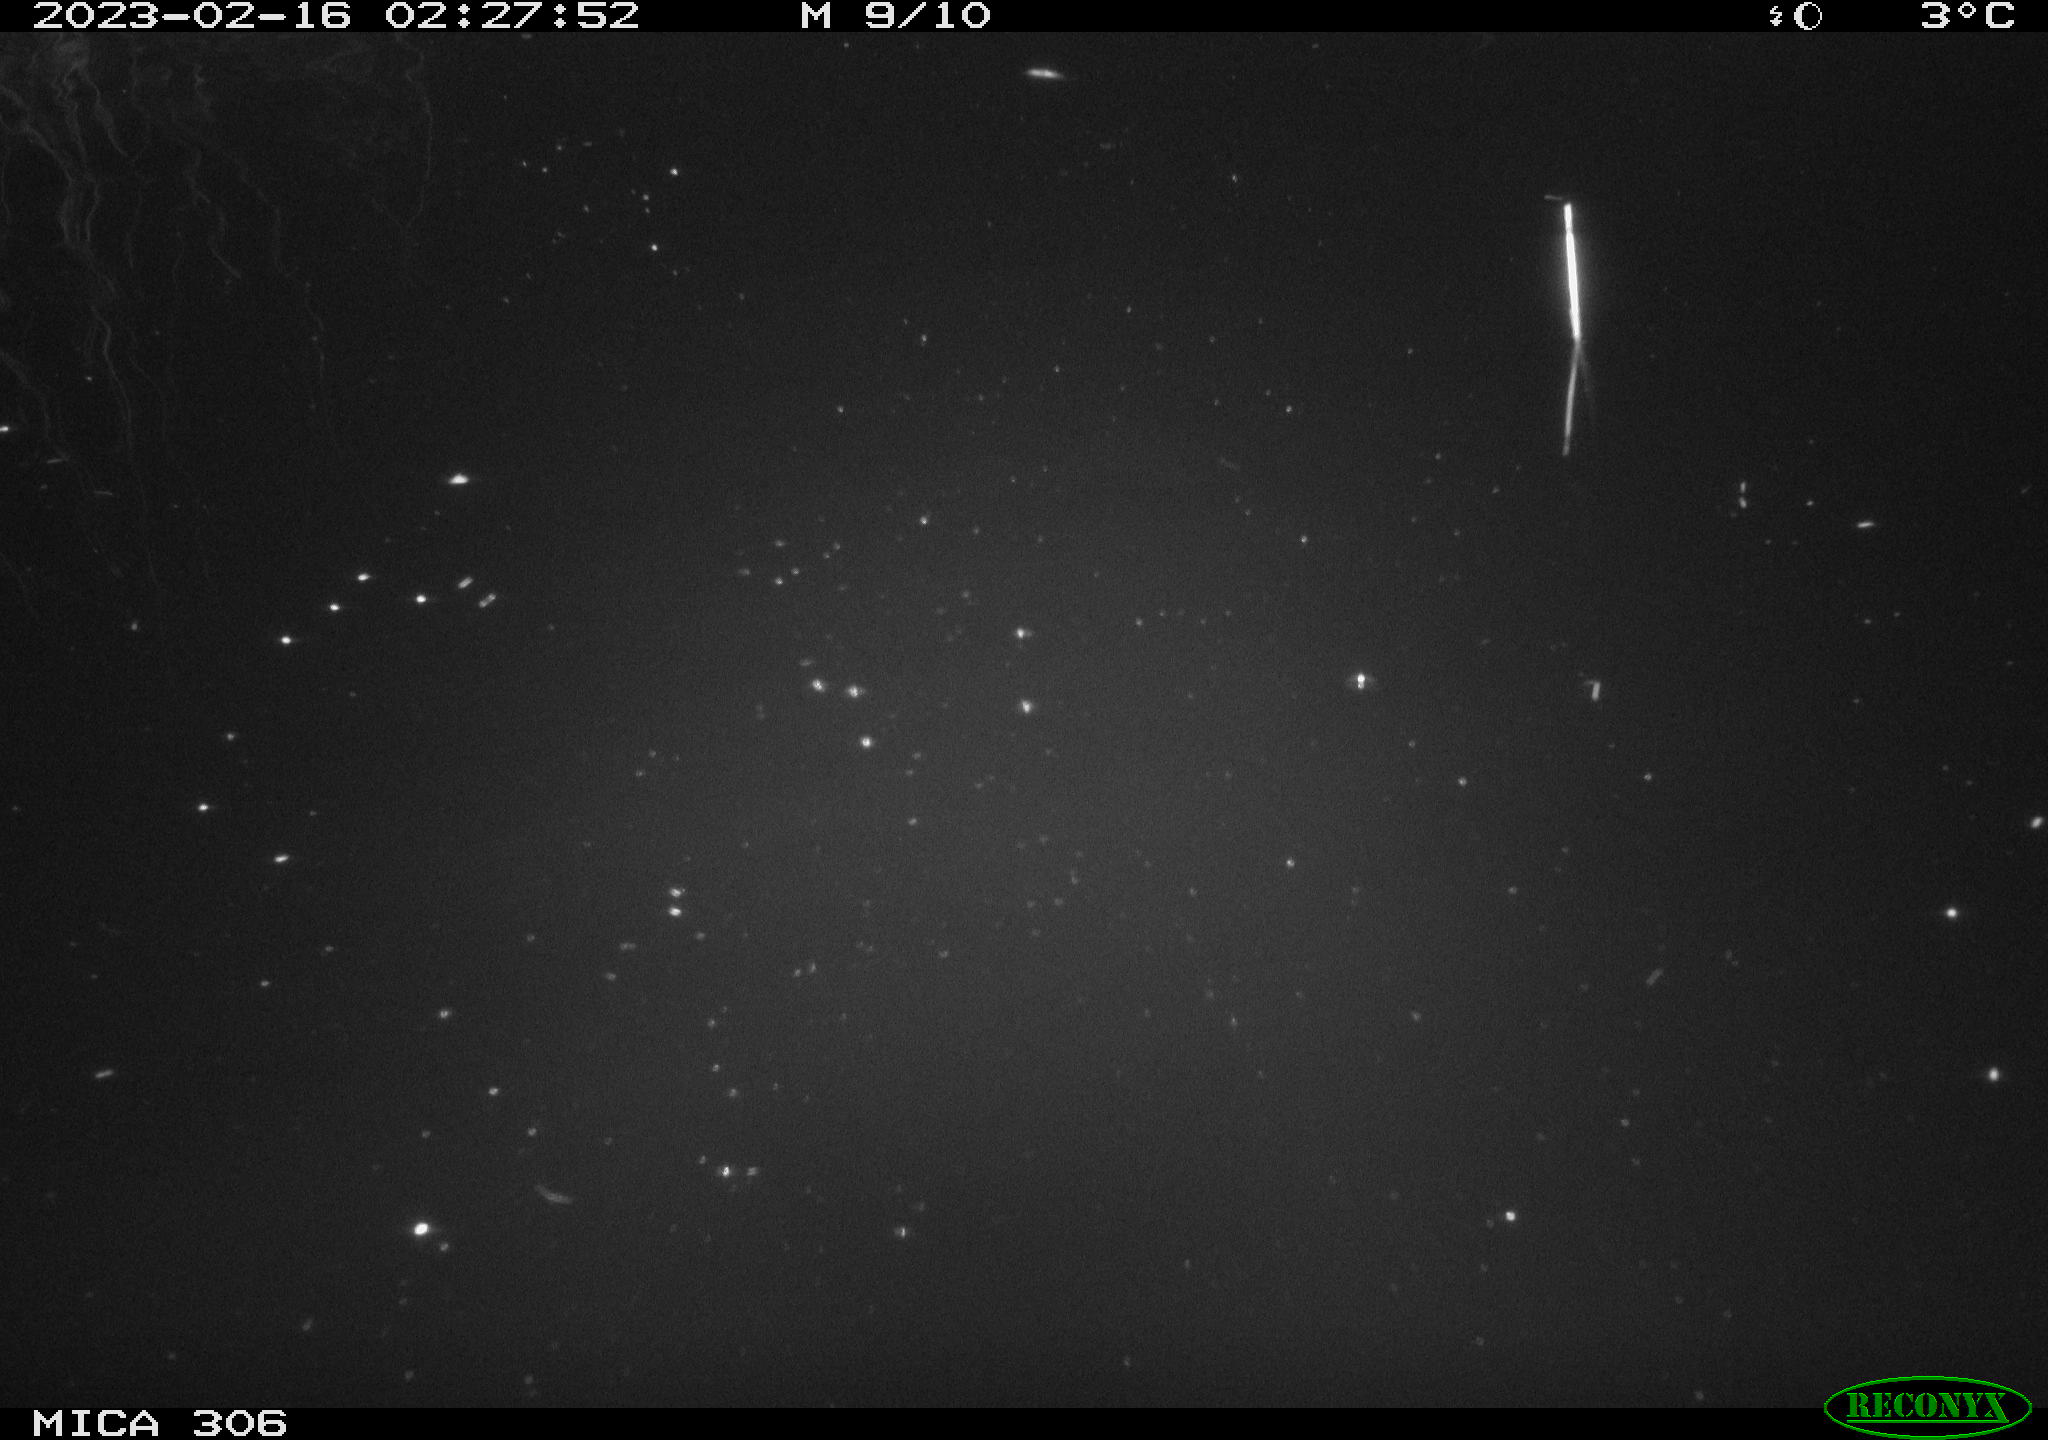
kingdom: Animalia
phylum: Chordata
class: Mammalia
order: Rodentia
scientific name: Rodentia
